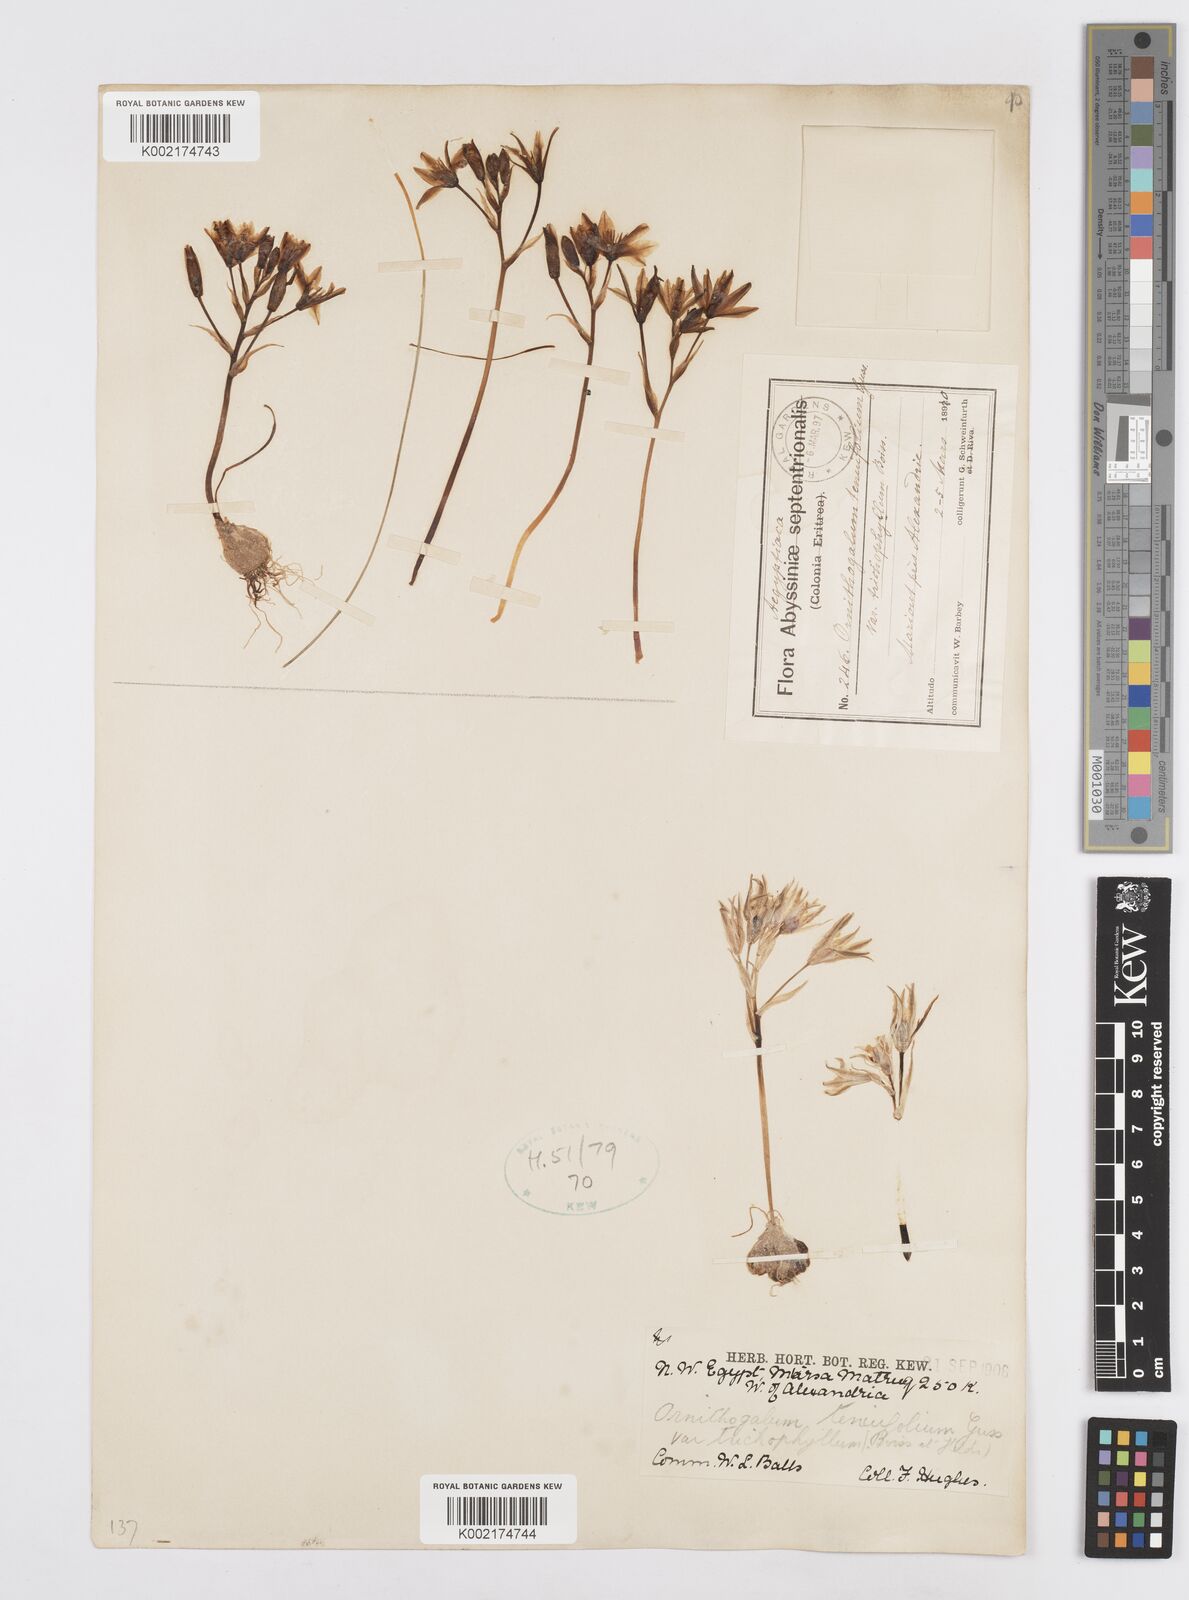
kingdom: Plantae
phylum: Tracheophyta
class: Liliopsida
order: Asparagales
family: Asparagaceae
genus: Ornithogalum
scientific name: Ornithogalum
